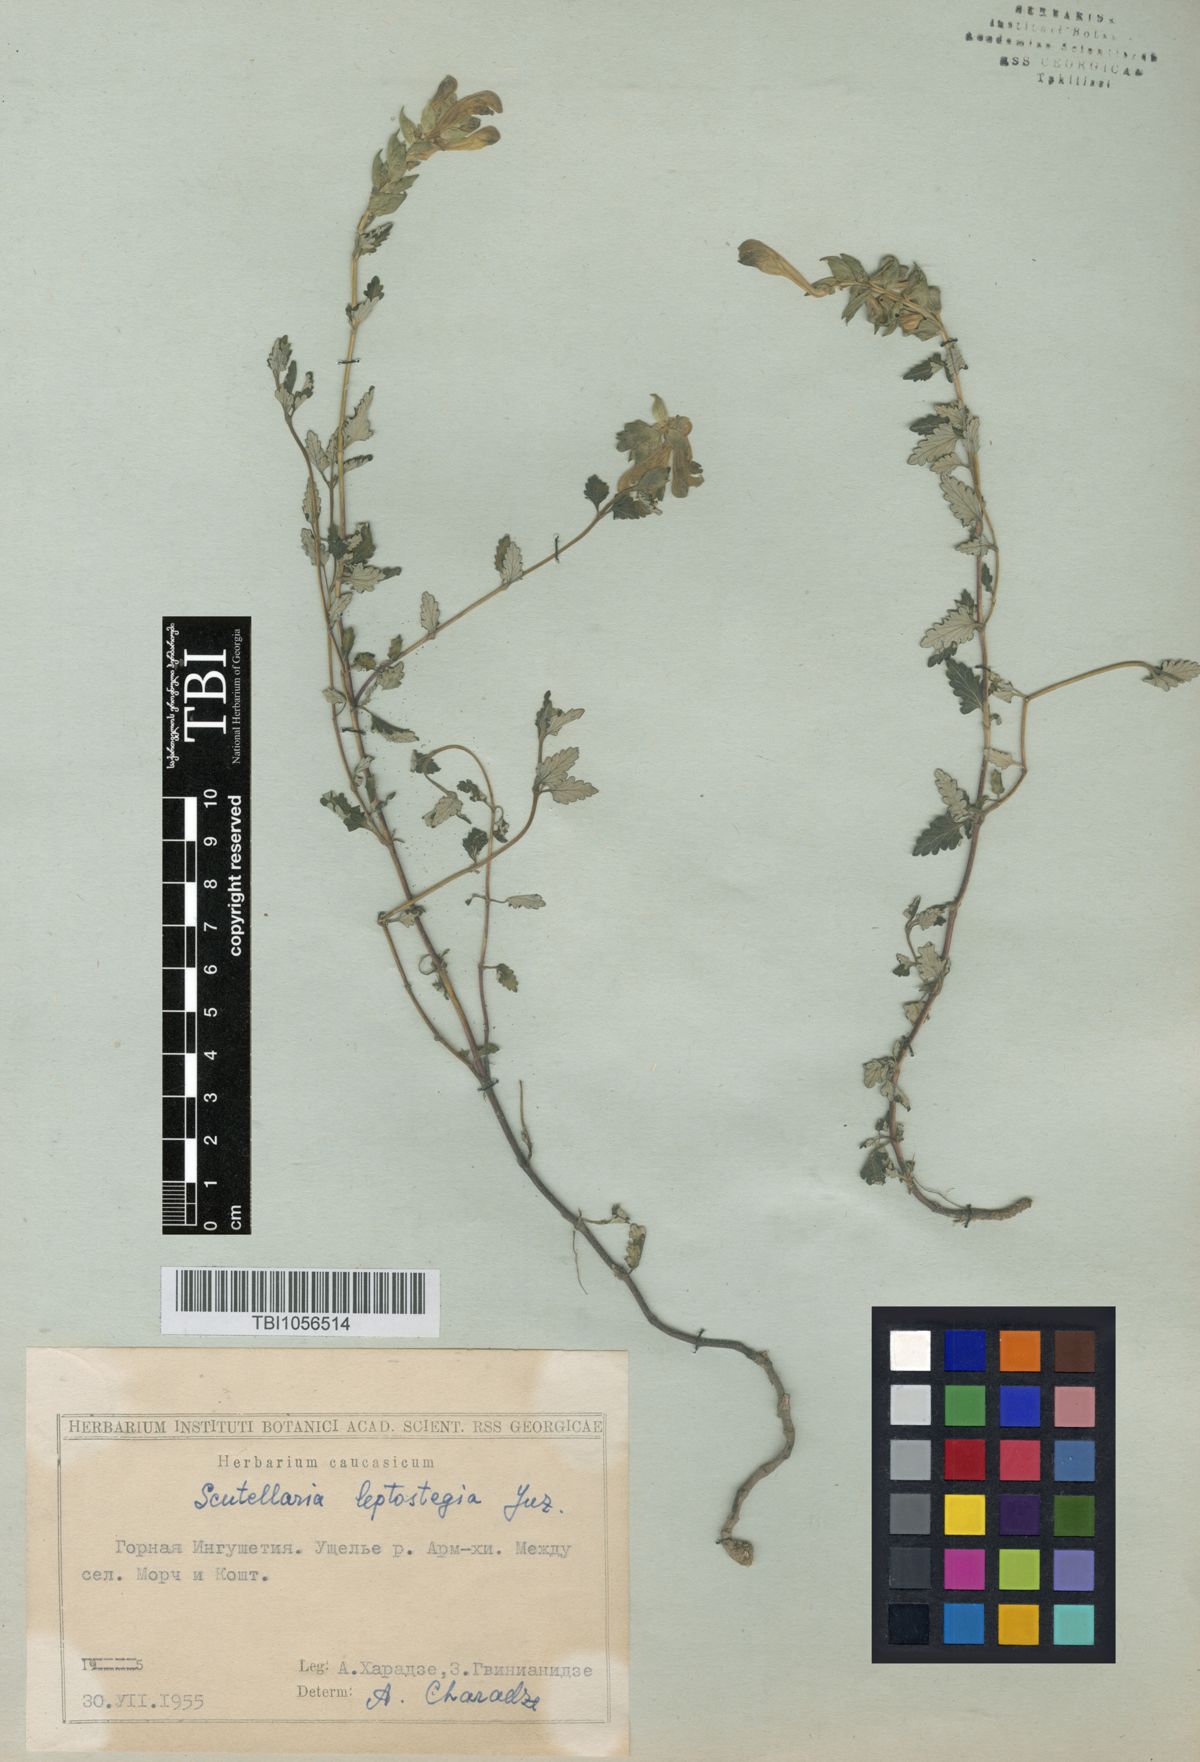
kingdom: Plantae
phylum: Tracheophyta
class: Magnoliopsida
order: Lamiales
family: Lamiaceae
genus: Scutellaria
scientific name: Scutellaria leptostegia
